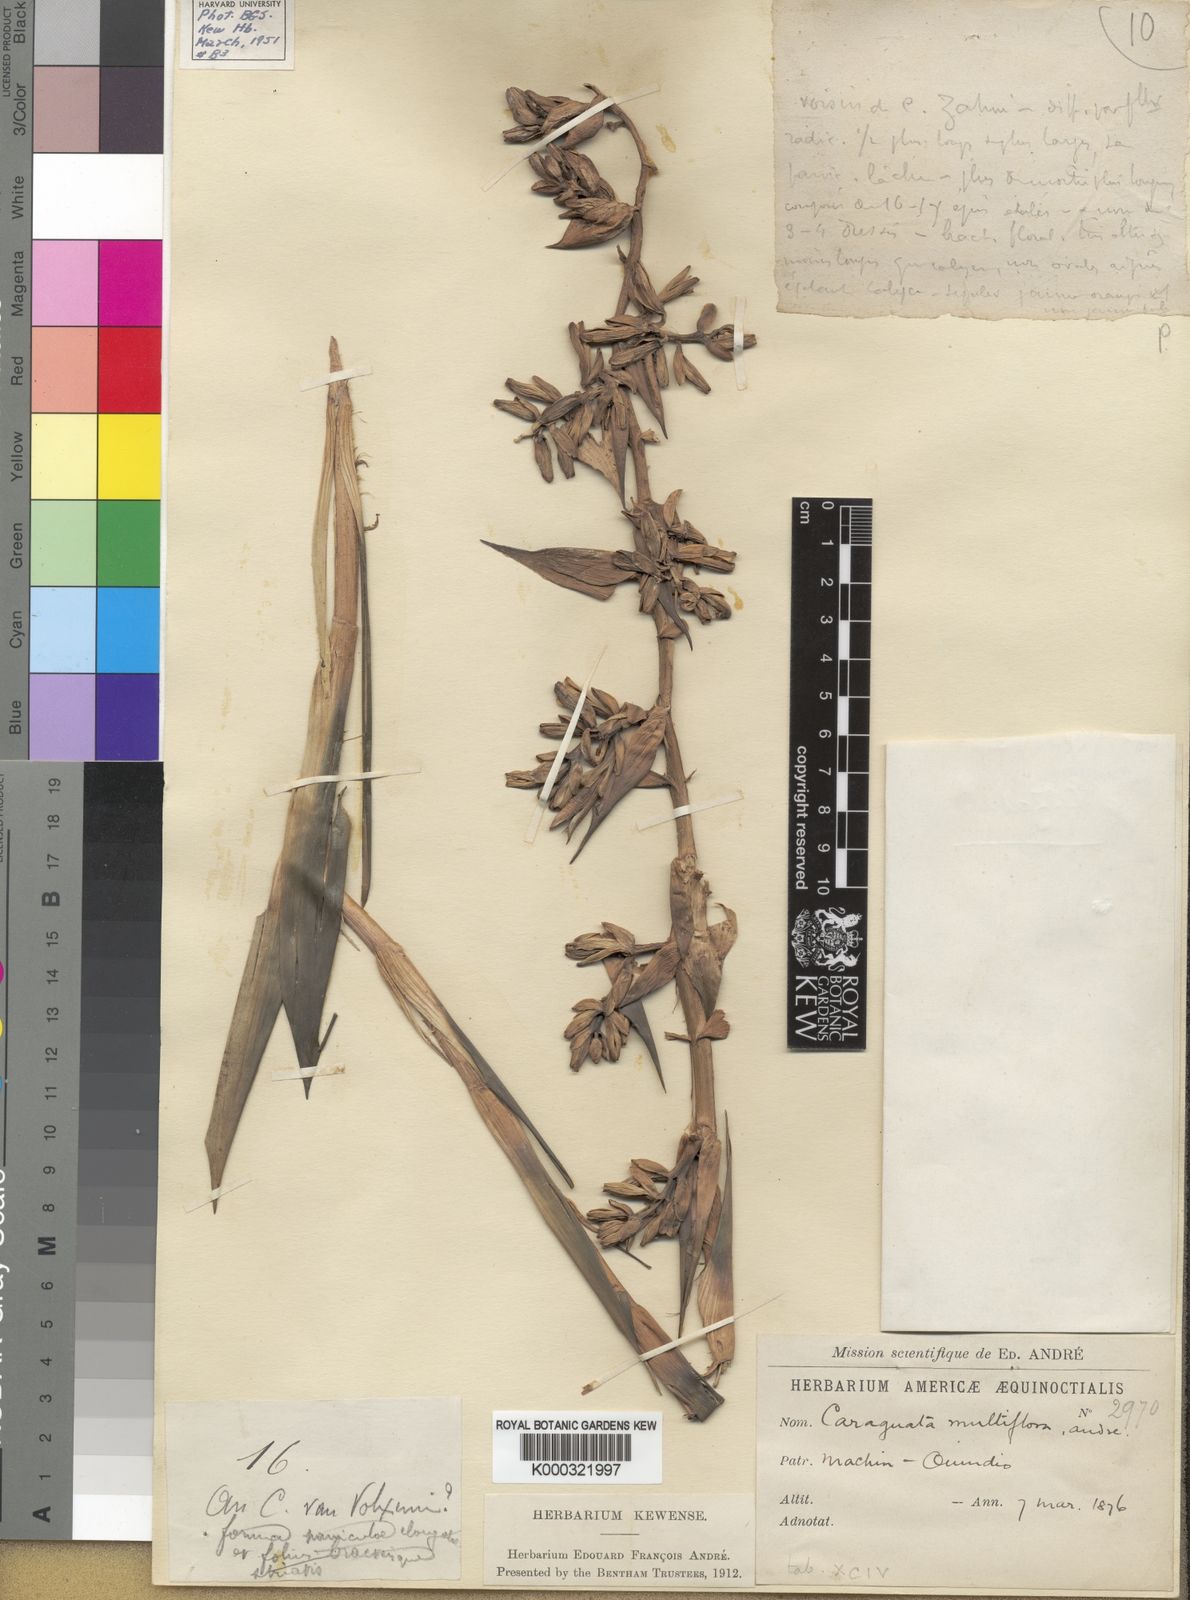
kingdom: Plantae
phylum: Tracheophyta
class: Liliopsida
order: Poales
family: Bromeliaceae
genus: Guzmania
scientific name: Guzmania multiflora
